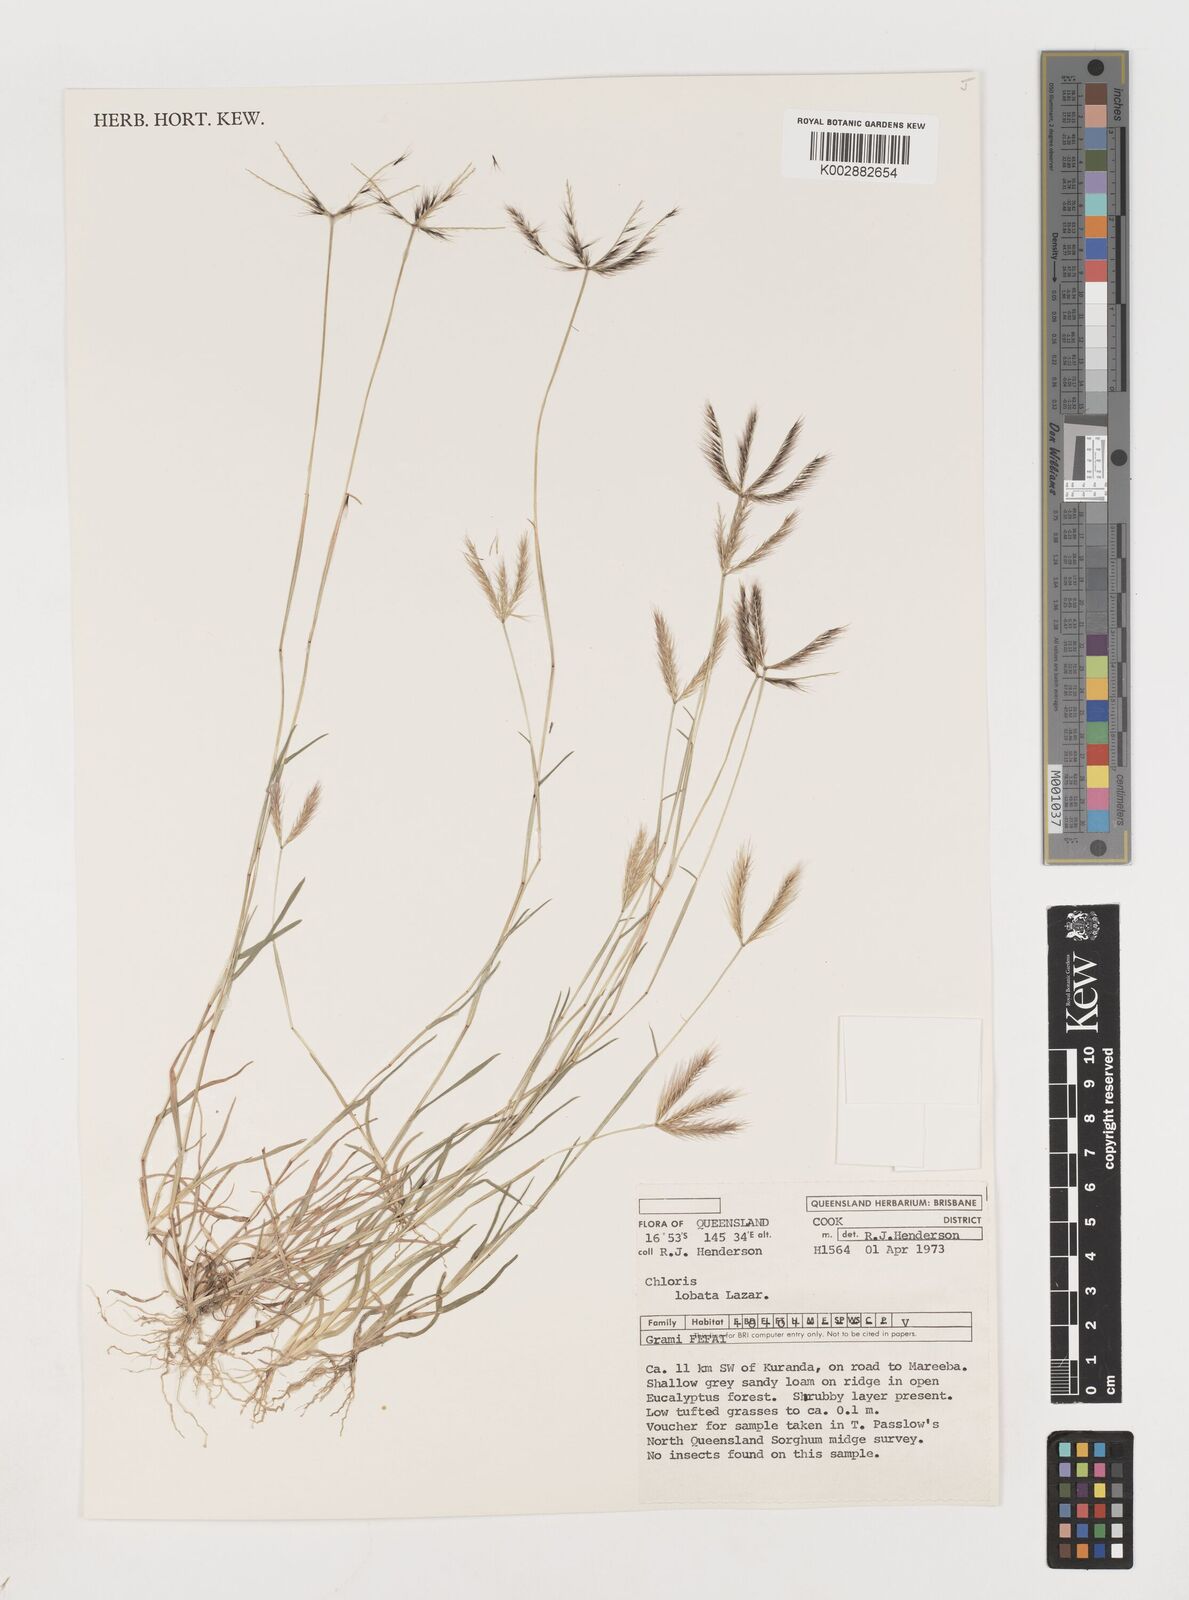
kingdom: Plantae
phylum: Tracheophyta
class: Liliopsida
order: Poales
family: Poaceae
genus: Chloris
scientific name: Chloris lobata
